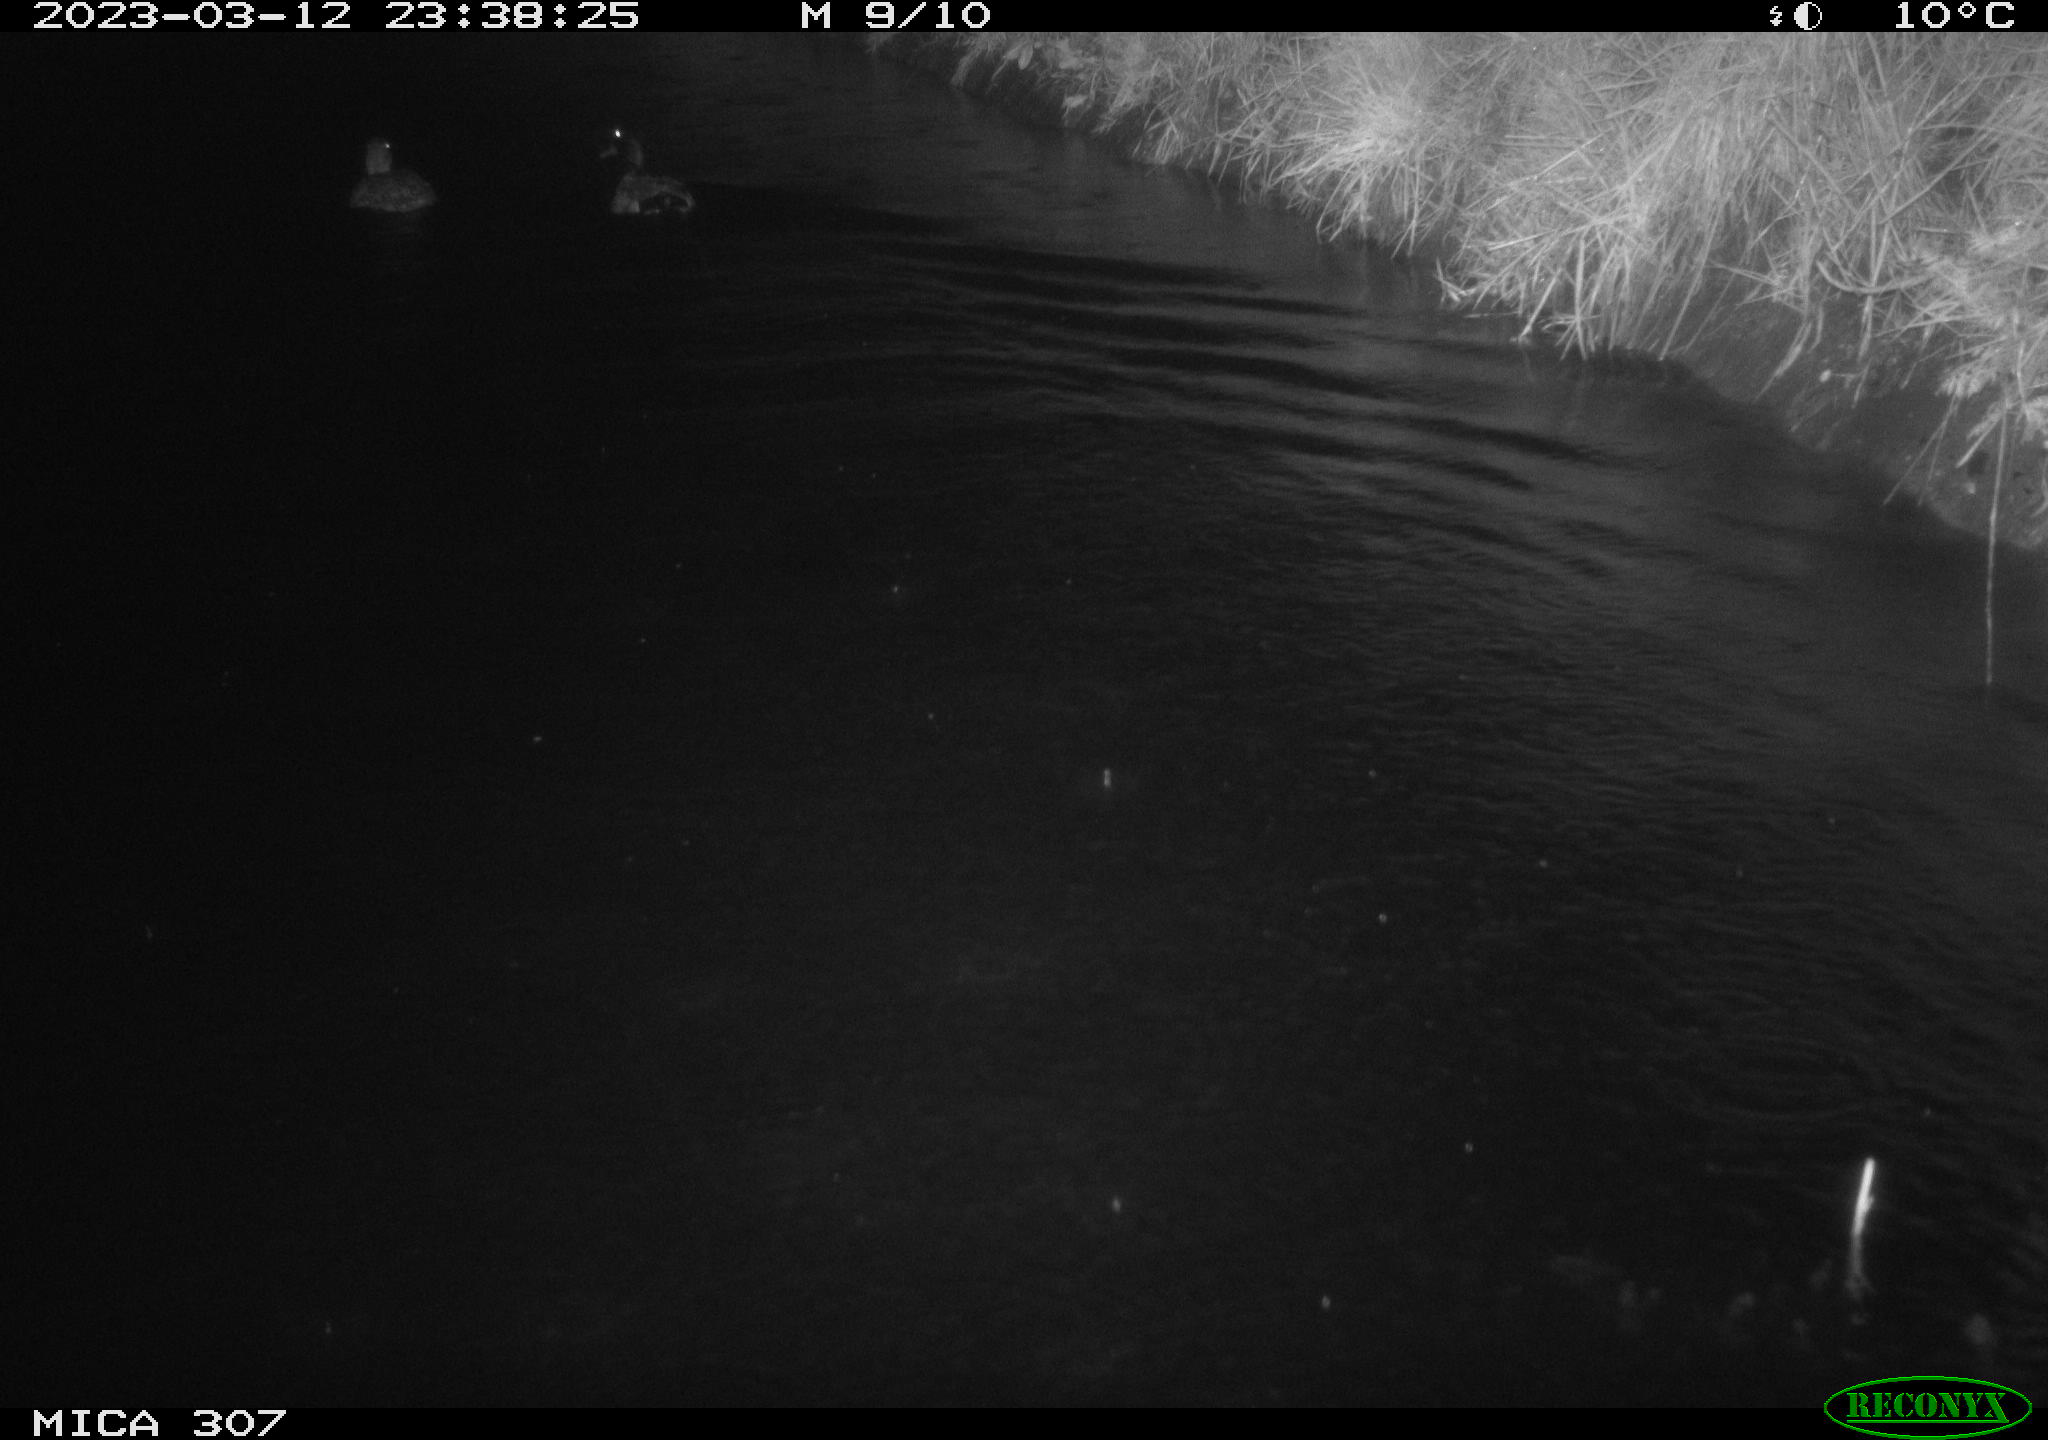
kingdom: Animalia
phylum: Chordata
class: Aves
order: Anseriformes
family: Anatidae
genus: Anas
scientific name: Anas
